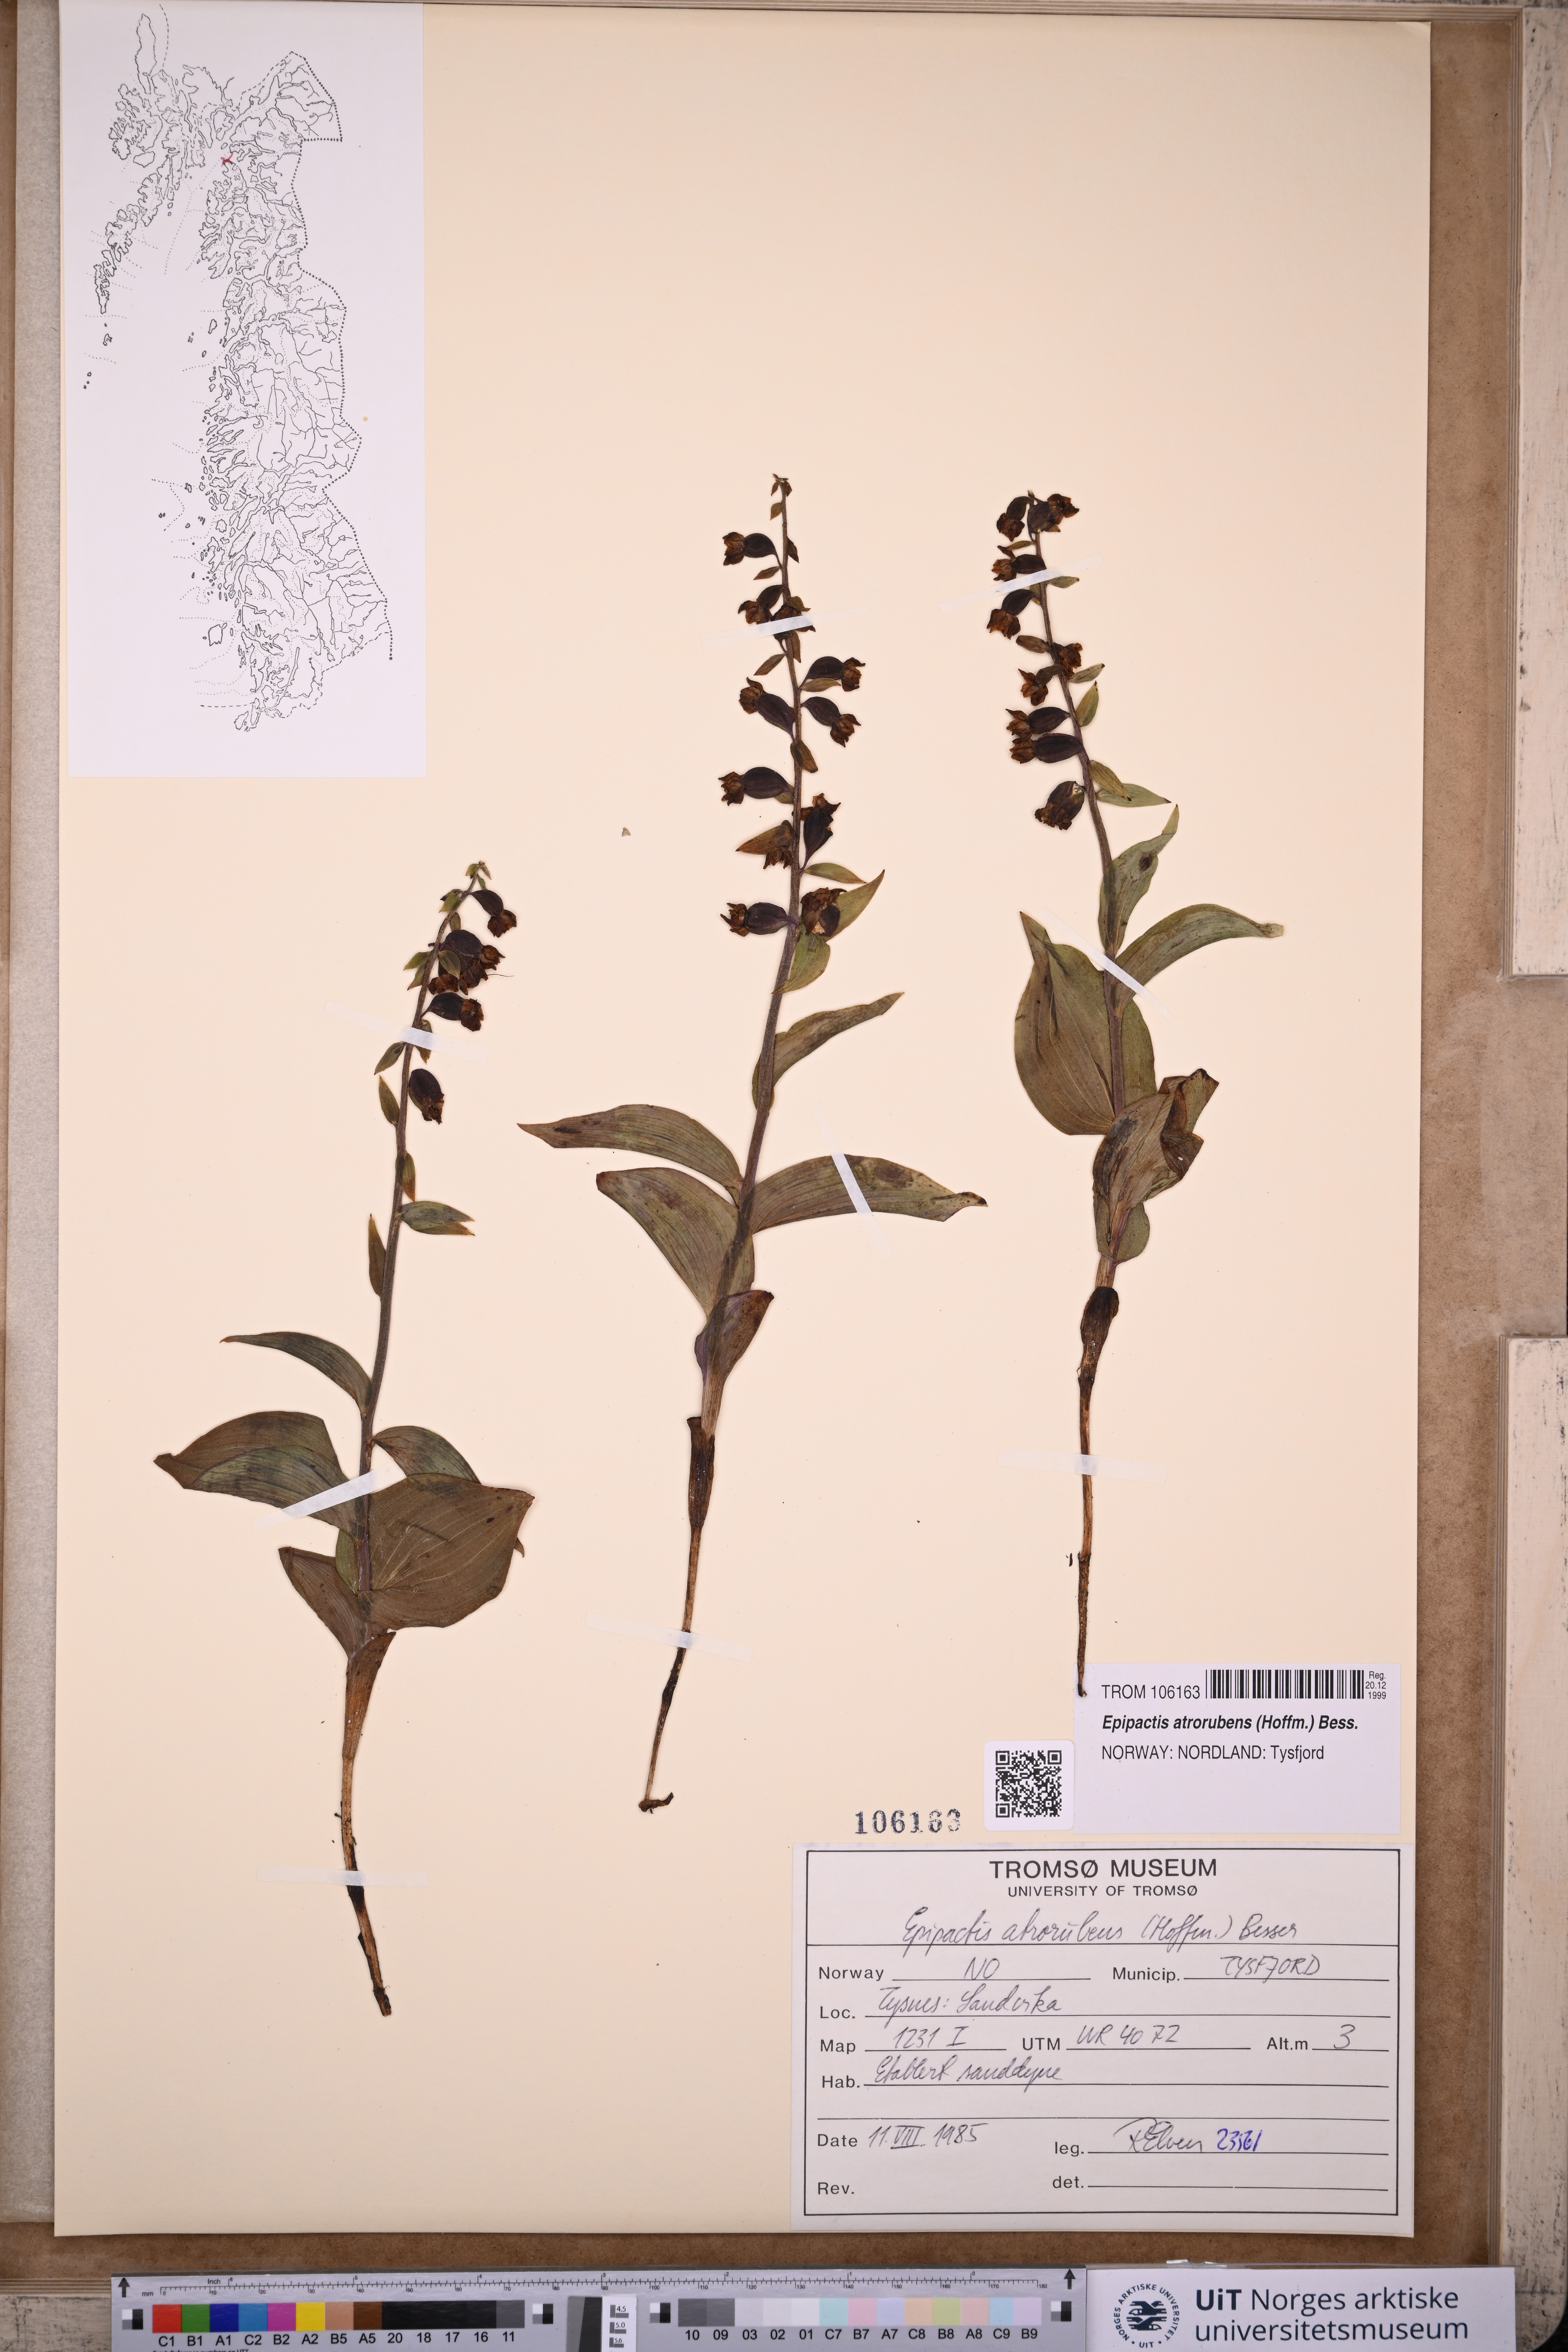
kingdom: Plantae
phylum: Tracheophyta
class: Liliopsida
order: Asparagales
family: Orchidaceae
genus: Epipactis
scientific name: Epipactis atrorubens
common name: Dark-red helleborine
